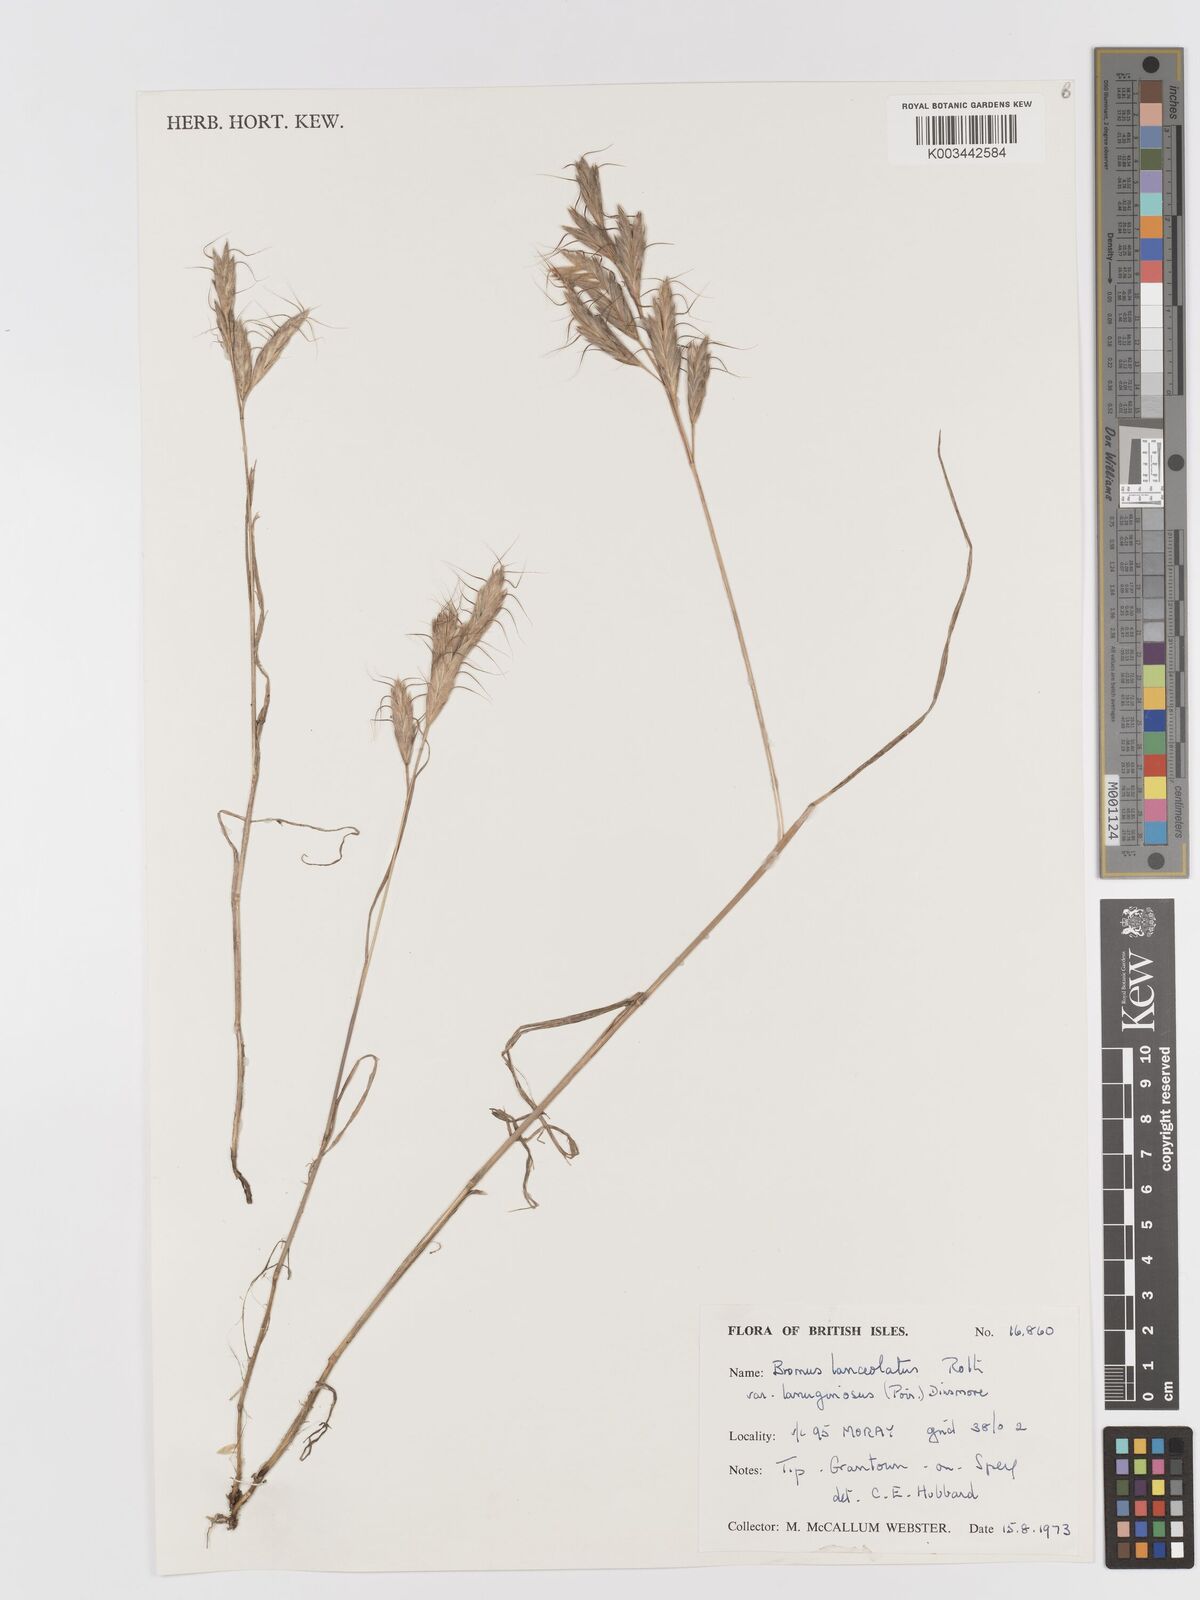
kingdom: Plantae
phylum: Tracheophyta
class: Liliopsida
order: Poales
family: Poaceae
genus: Bromus
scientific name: Bromus lanceolatus
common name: Mediterranean brome
